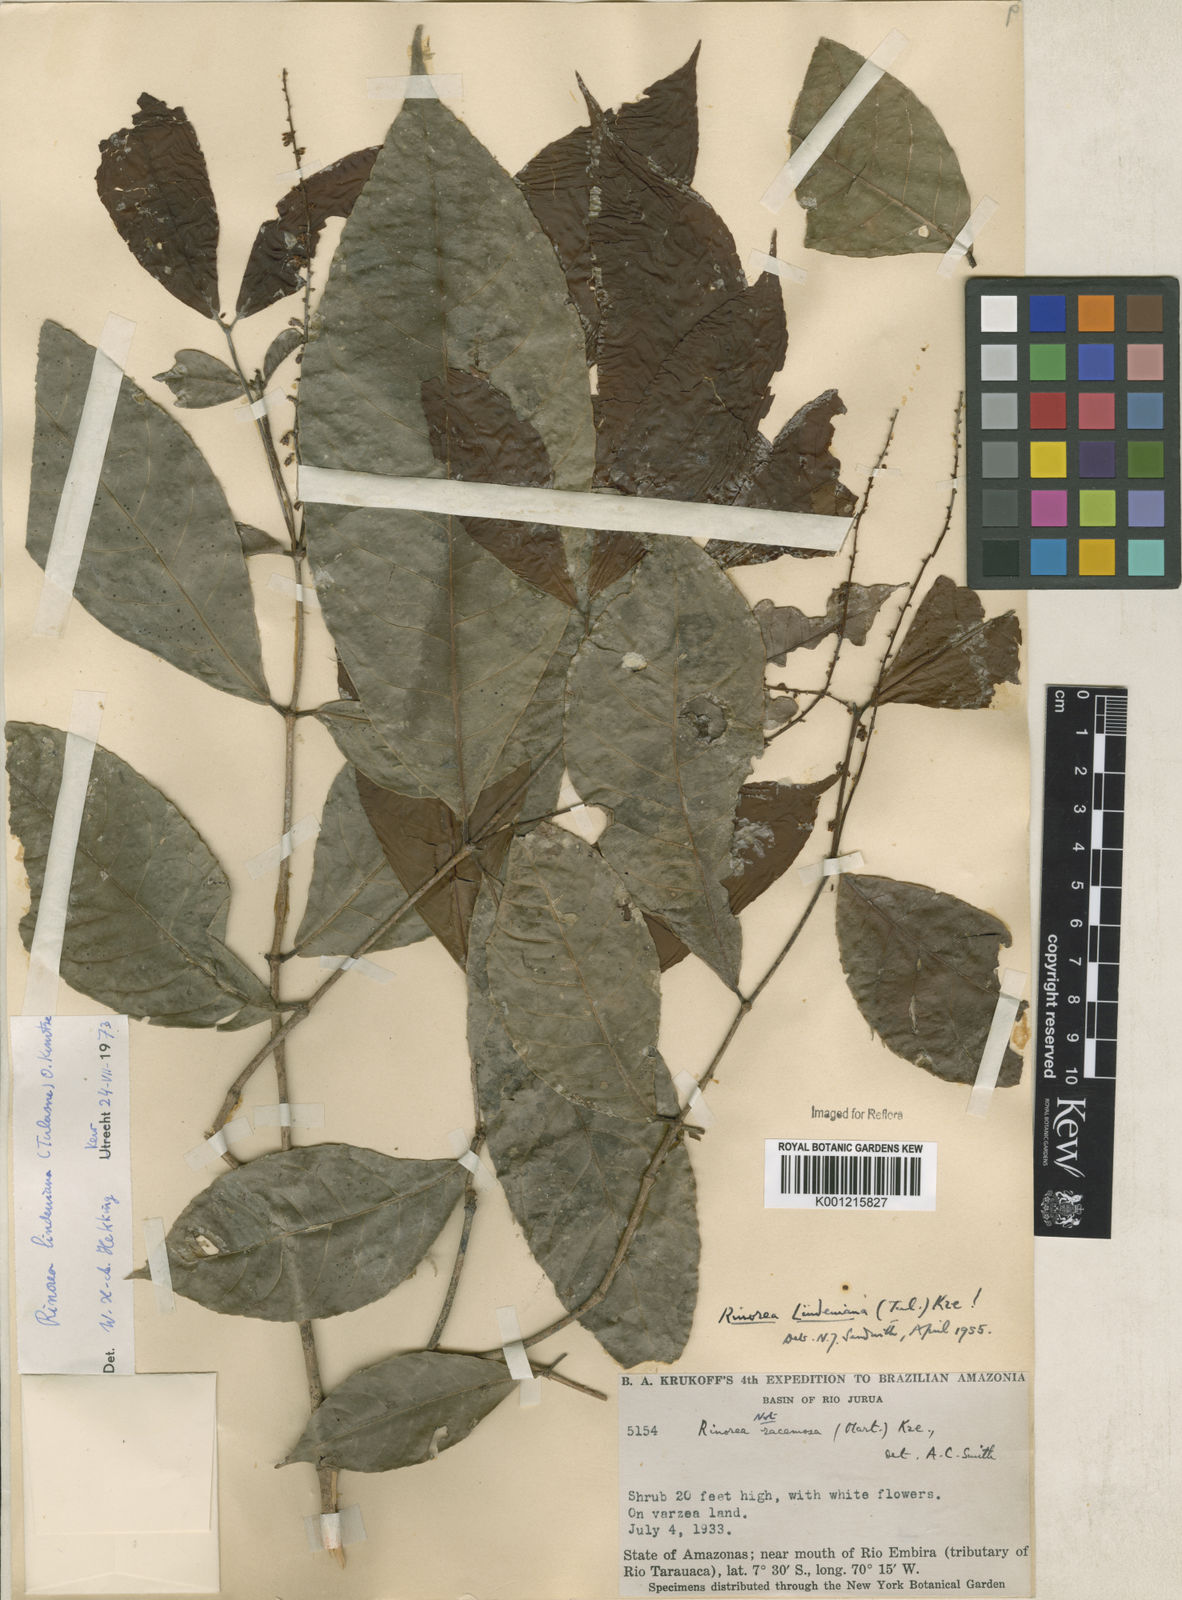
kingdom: Plantae
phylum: Tracheophyta
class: Magnoliopsida
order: Malpighiales
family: Violaceae
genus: Rinorea
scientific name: Rinorea lindeniana
